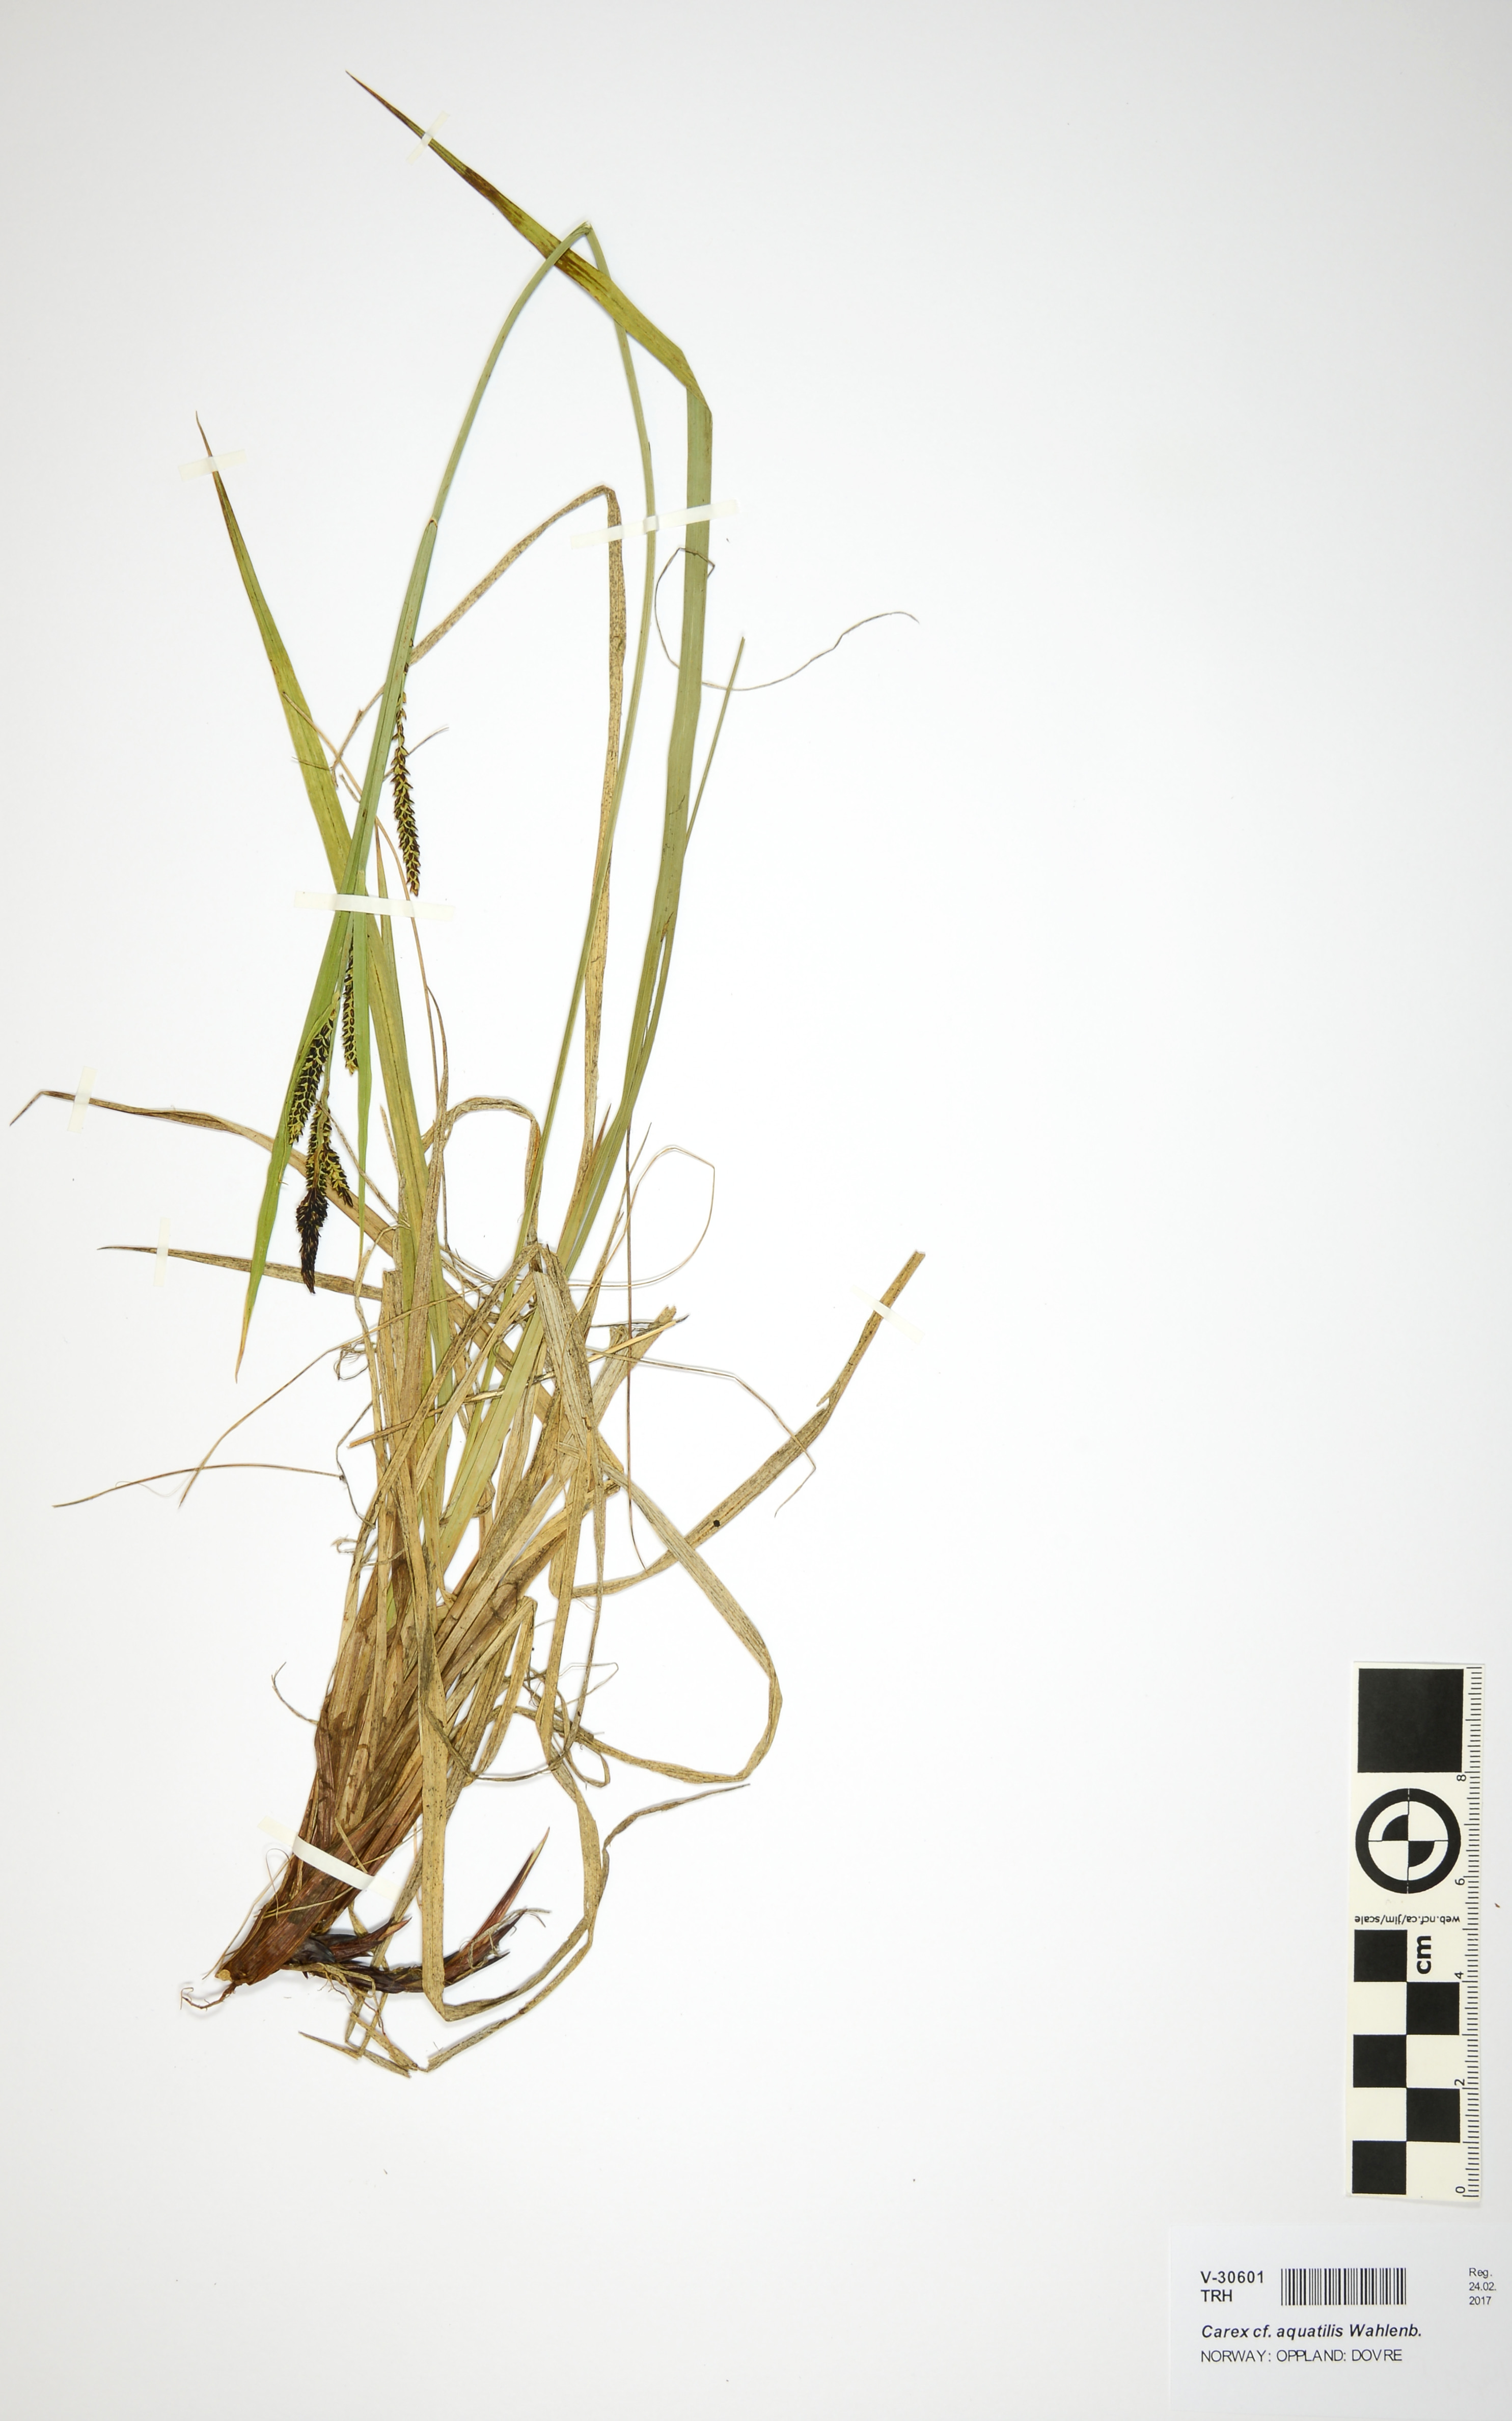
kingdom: Plantae
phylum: Tracheophyta
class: Liliopsida
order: Poales
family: Cyperaceae
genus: Carex
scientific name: Carex aquatilis
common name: Water sedge
